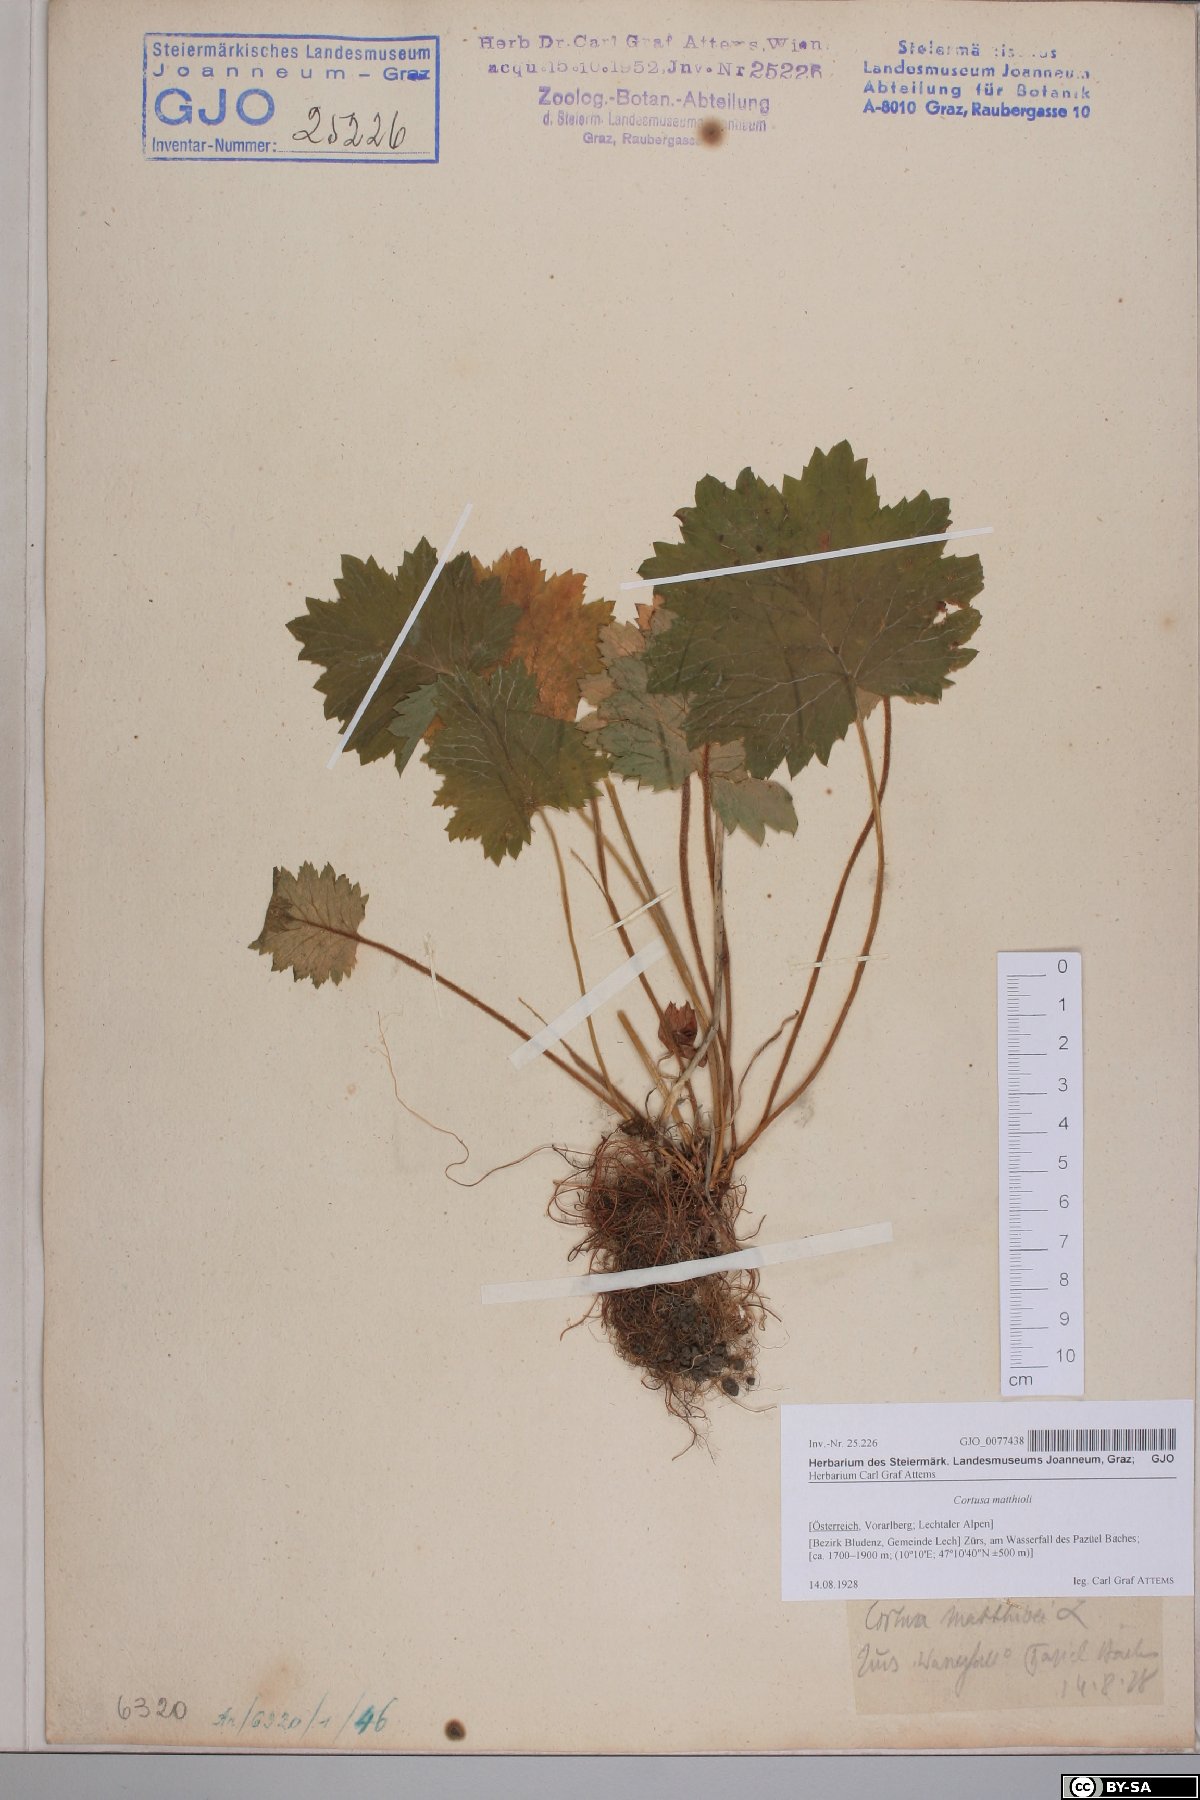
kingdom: Plantae
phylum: Tracheophyta
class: Magnoliopsida
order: Ericales
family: Primulaceae
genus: Primula
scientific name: Primula matthioli
